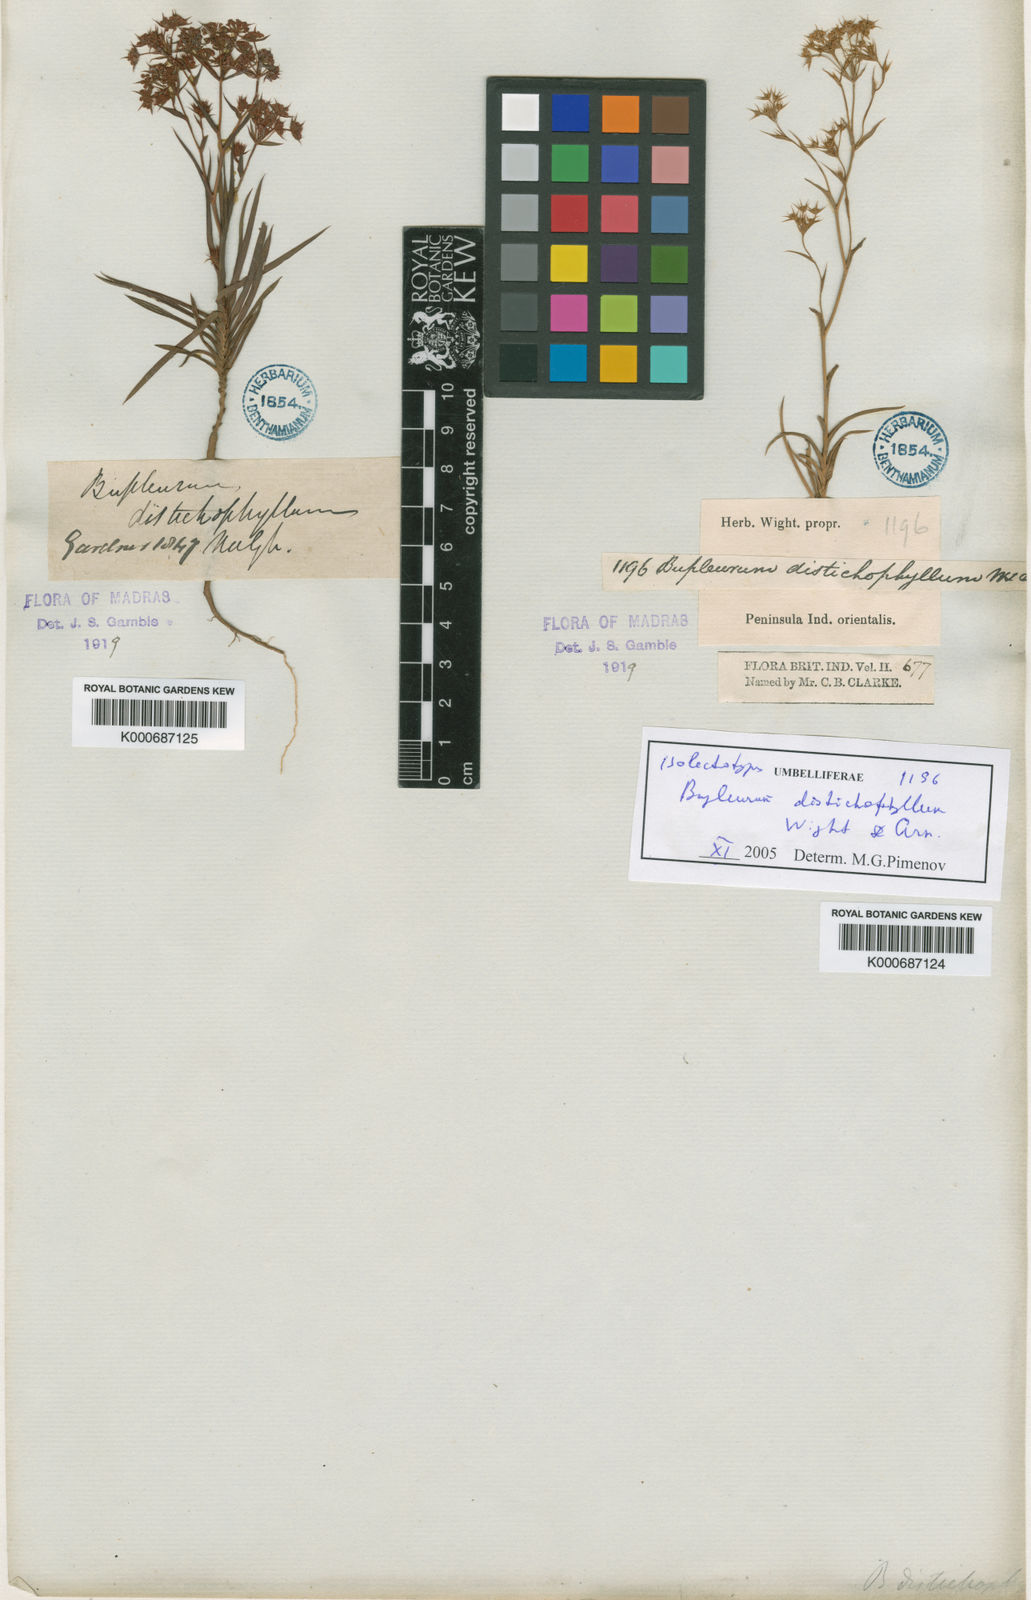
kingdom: Plantae
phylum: Tracheophyta
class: Magnoliopsida
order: Apiales
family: Apiaceae
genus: Bupleurum
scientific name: Bupleurum distichophyllum
